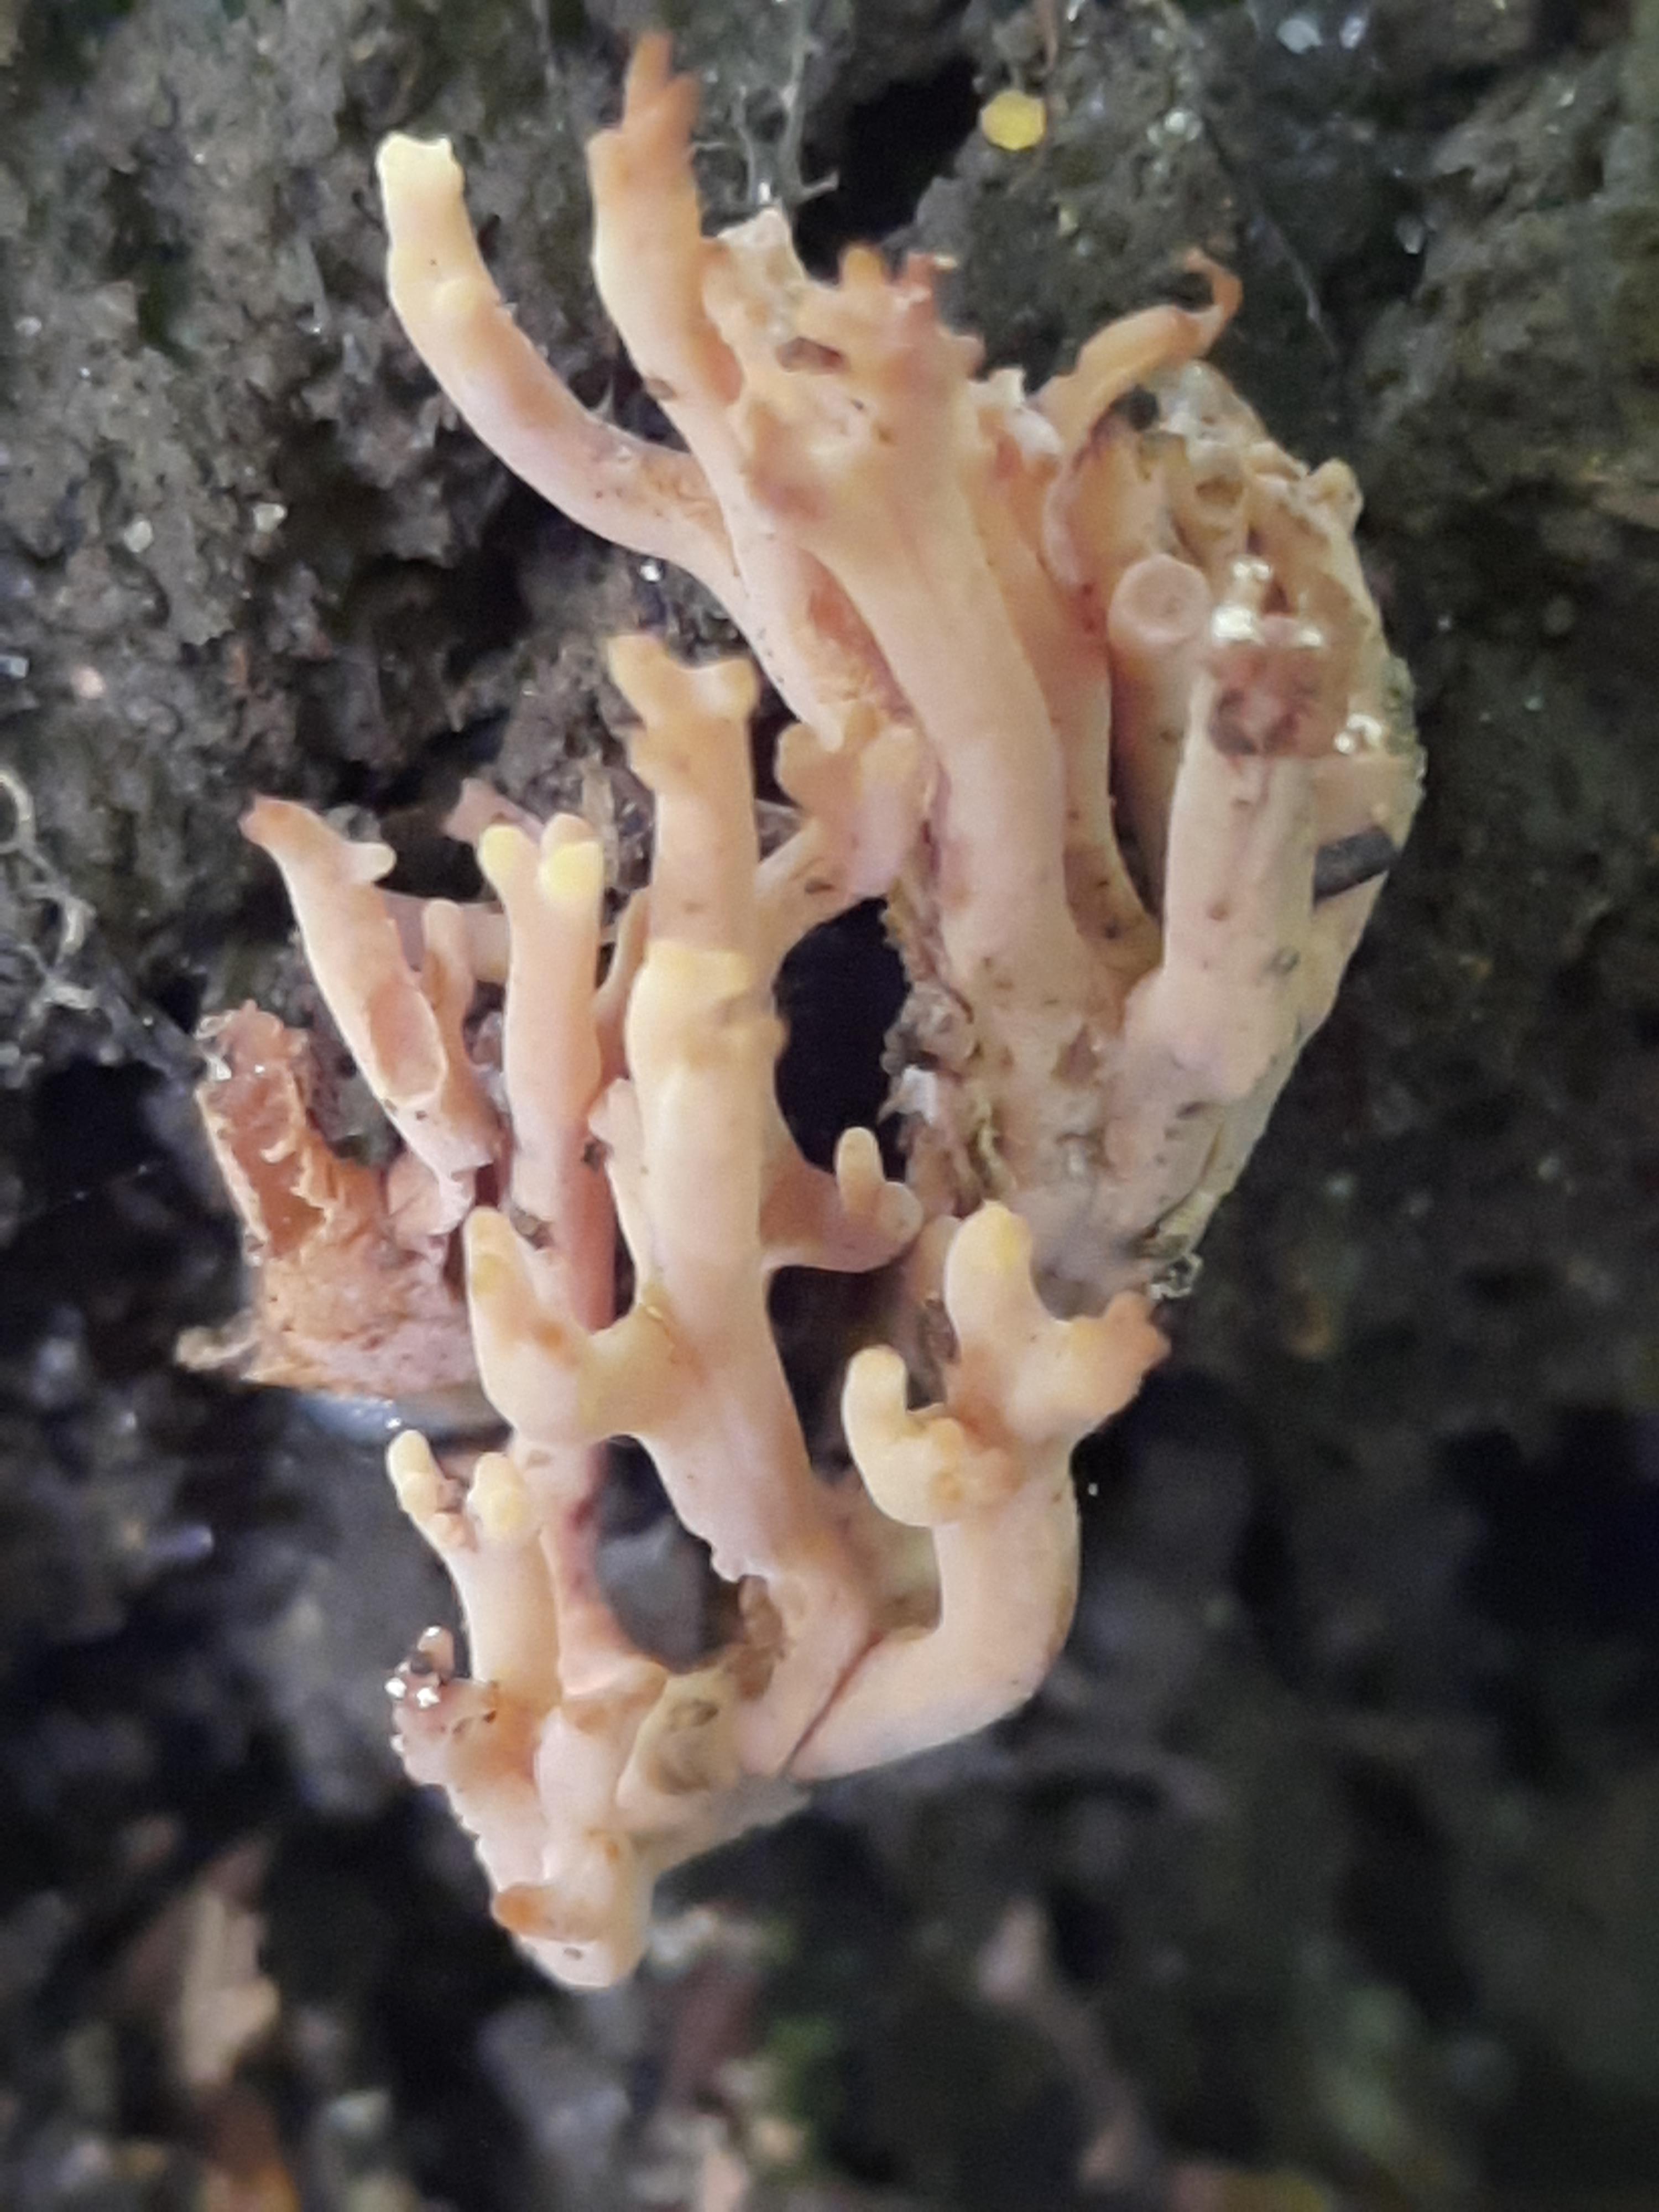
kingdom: Fungi
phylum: Basidiomycota
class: Agaricomycetes
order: Gomphales
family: Gomphaceae
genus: Ramaria
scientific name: Ramaria stricta
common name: rank koralsvamp
